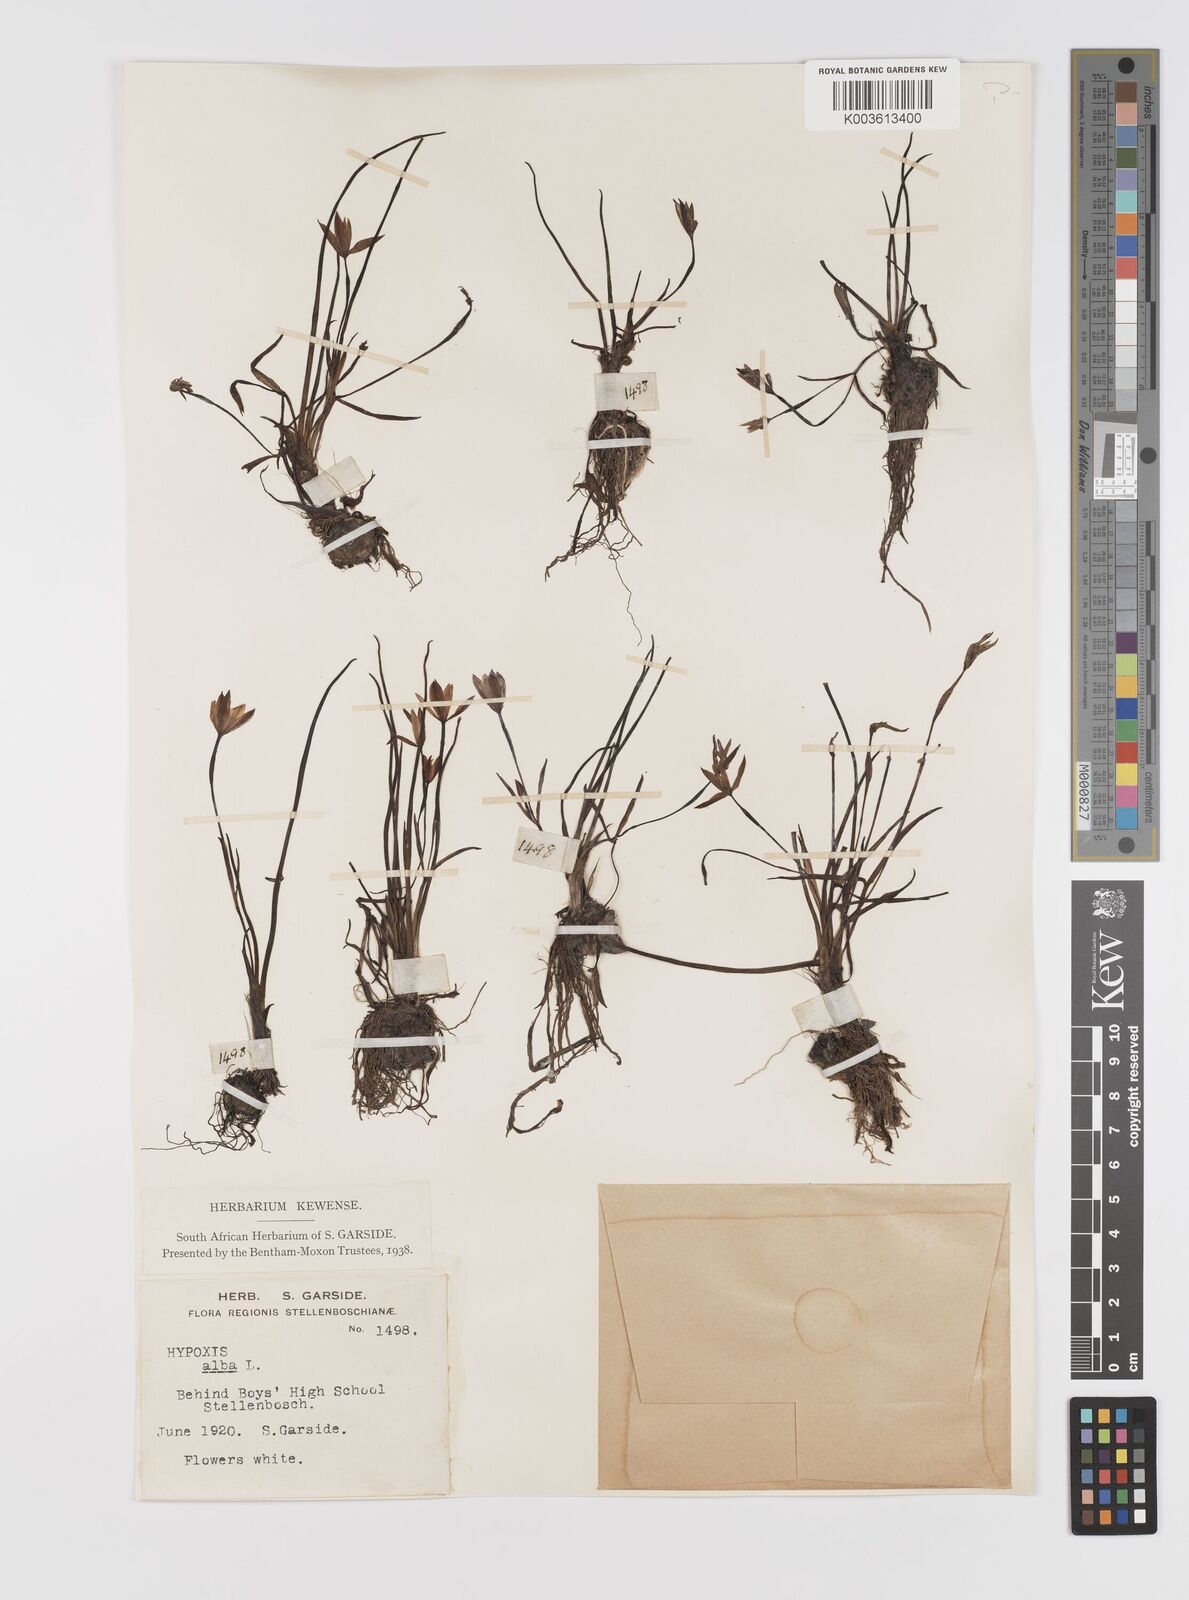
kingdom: Plantae
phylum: Tracheophyta
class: Liliopsida
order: Asparagales
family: Hypoxidaceae
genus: Pauridia
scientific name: Pauridia alba
